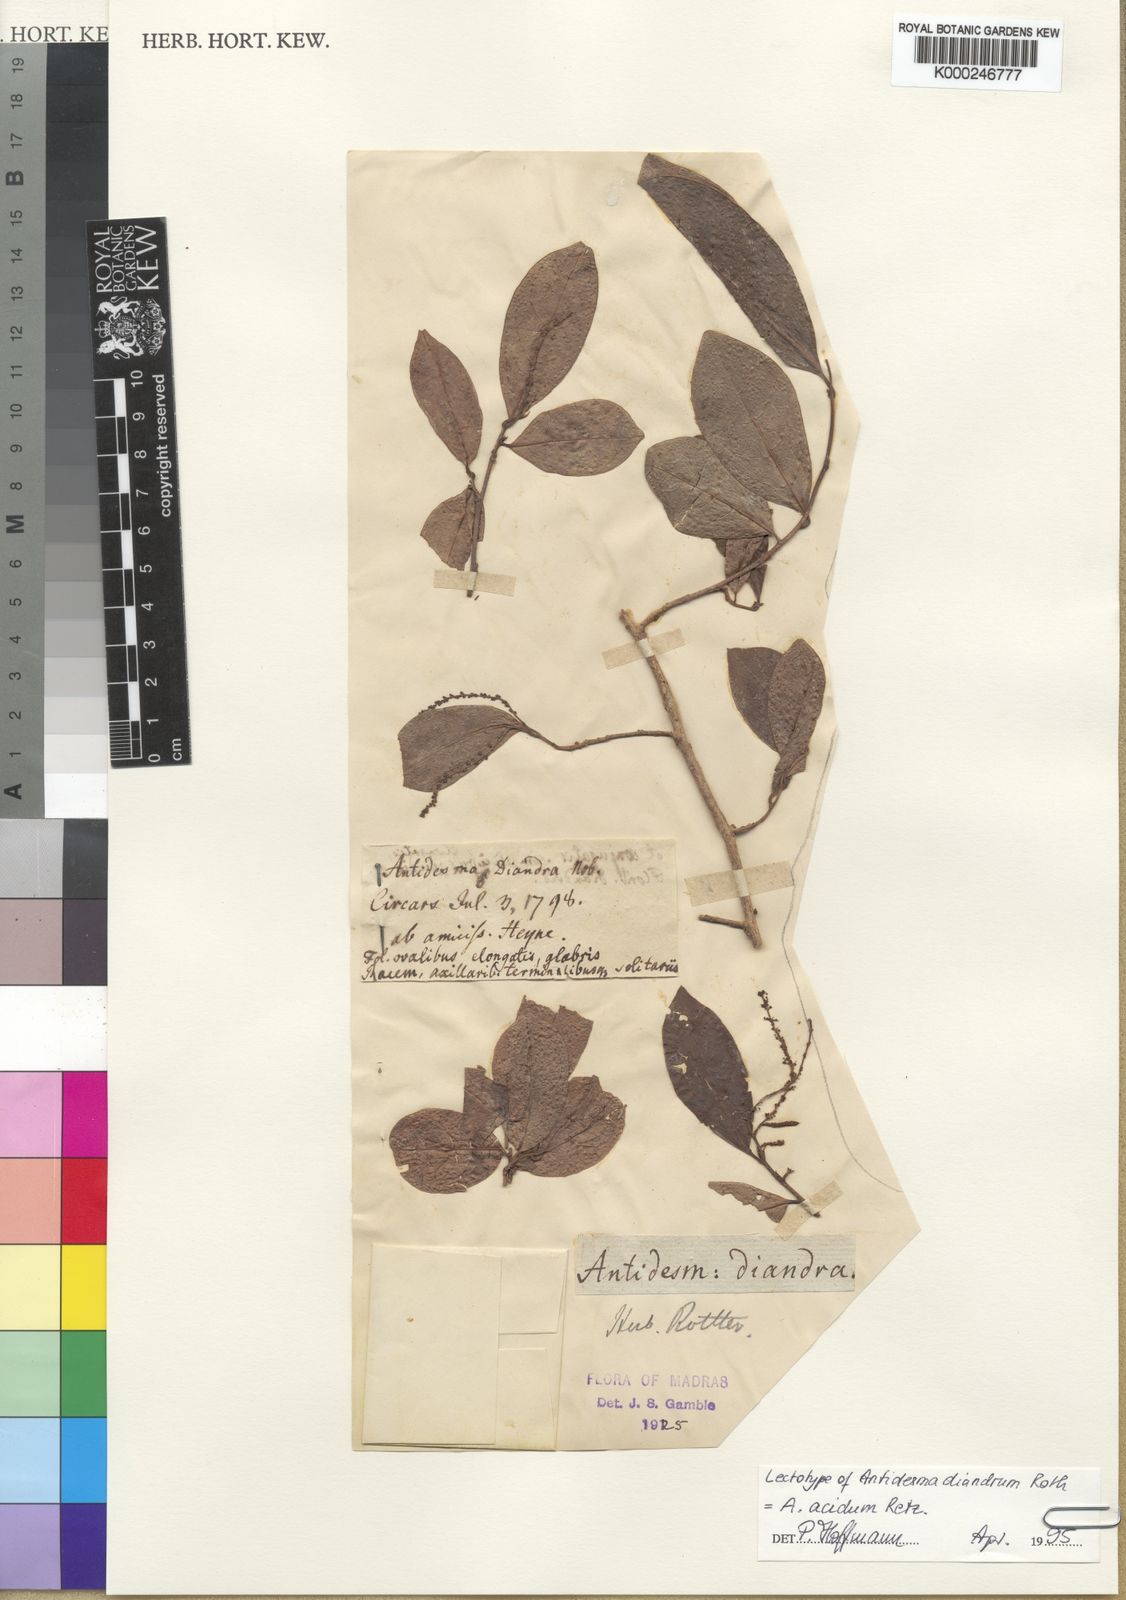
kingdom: Plantae
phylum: Tracheophyta
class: Magnoliopsida
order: Malpighiales
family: Phyllanthaceae
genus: Antidesma
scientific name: Antidesma acidum
